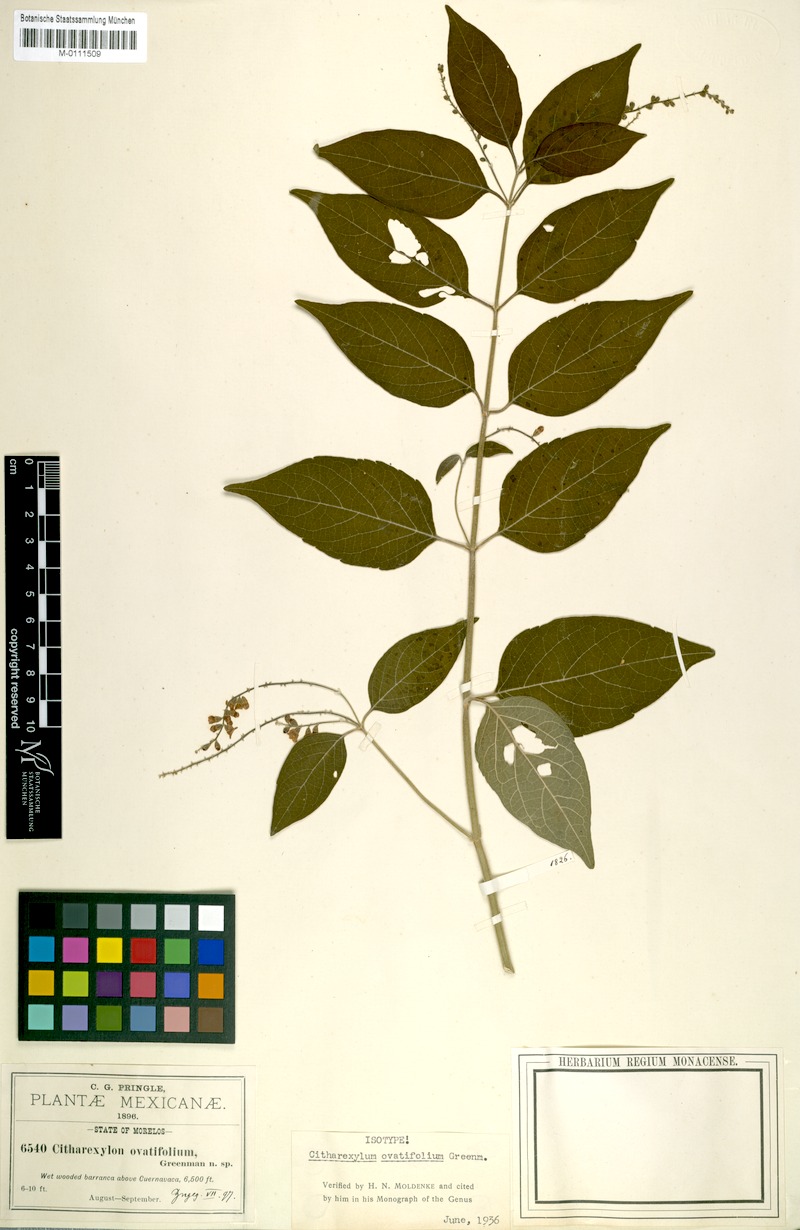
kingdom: Plantae
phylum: Tracheophyta
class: Magnoliopsida
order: Lamiales
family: Verbenaceae
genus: Citharexylum
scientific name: Citharexylum ovatifolium
